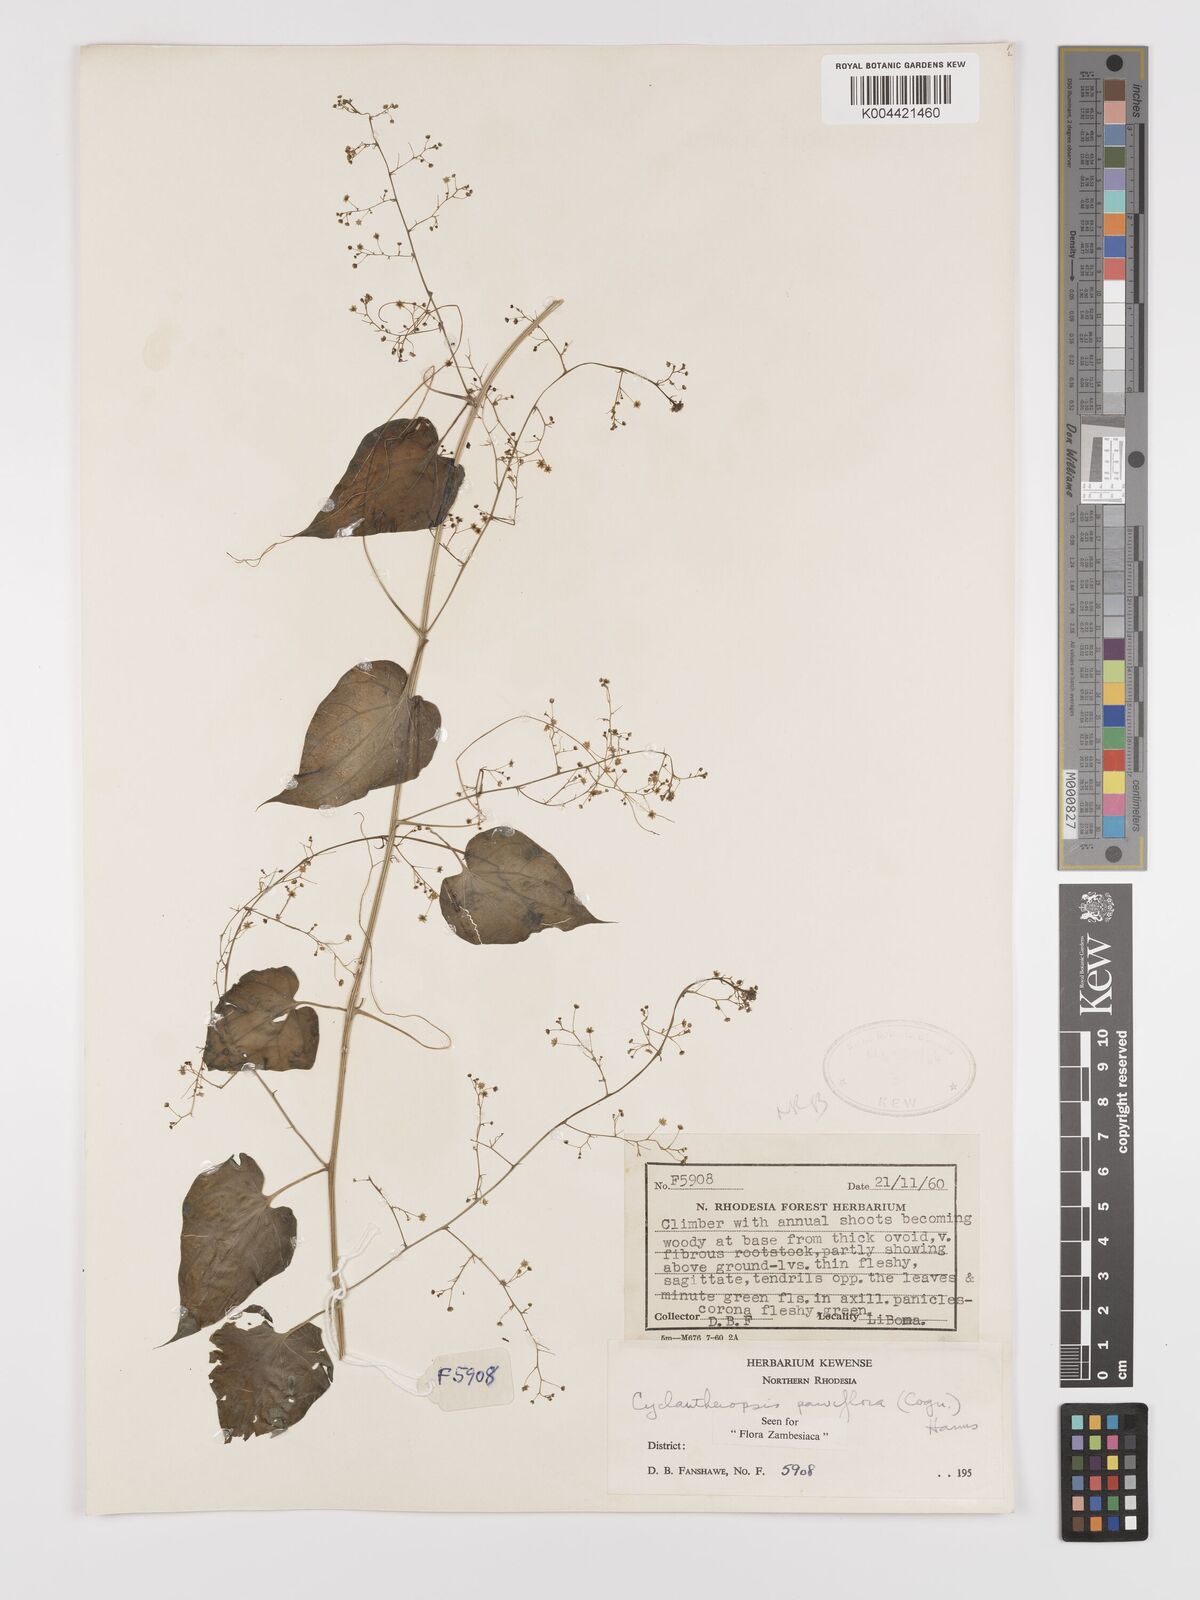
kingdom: Plantae
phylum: Tracheophyta
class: Magnoliopsida
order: Cucurbitales
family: Cucurbitaceae
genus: Cyclantheropsis
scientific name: Cyclantheropsis parviflora
